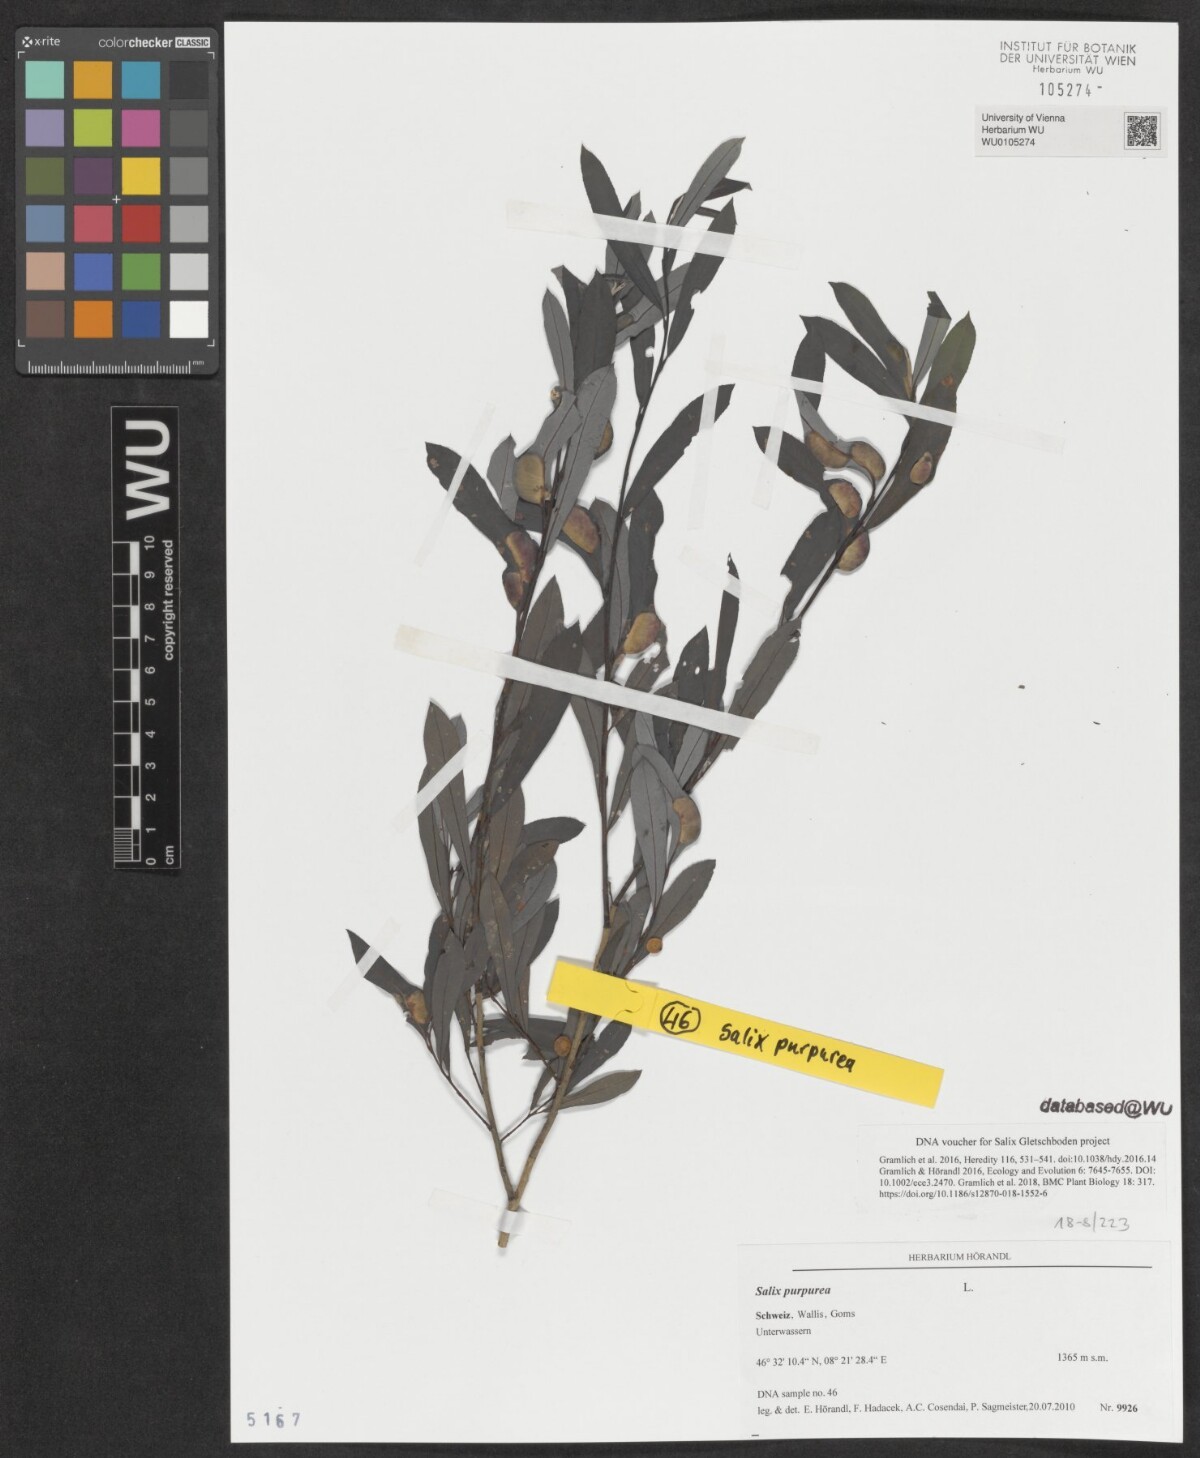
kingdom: Plantae
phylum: Tracheophyta
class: Magnoliopsida
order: Malpighiales
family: Salicaceae
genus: Salix
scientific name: Salix purpurea
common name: Purple willow
